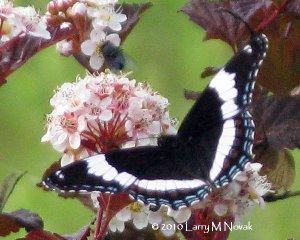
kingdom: Animalia
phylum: Arthropoda
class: Insecta
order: Lepidoptera
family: Nymphalidae
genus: Limenitis
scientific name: Limenitis arthemis
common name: Red-spotted Admiral
